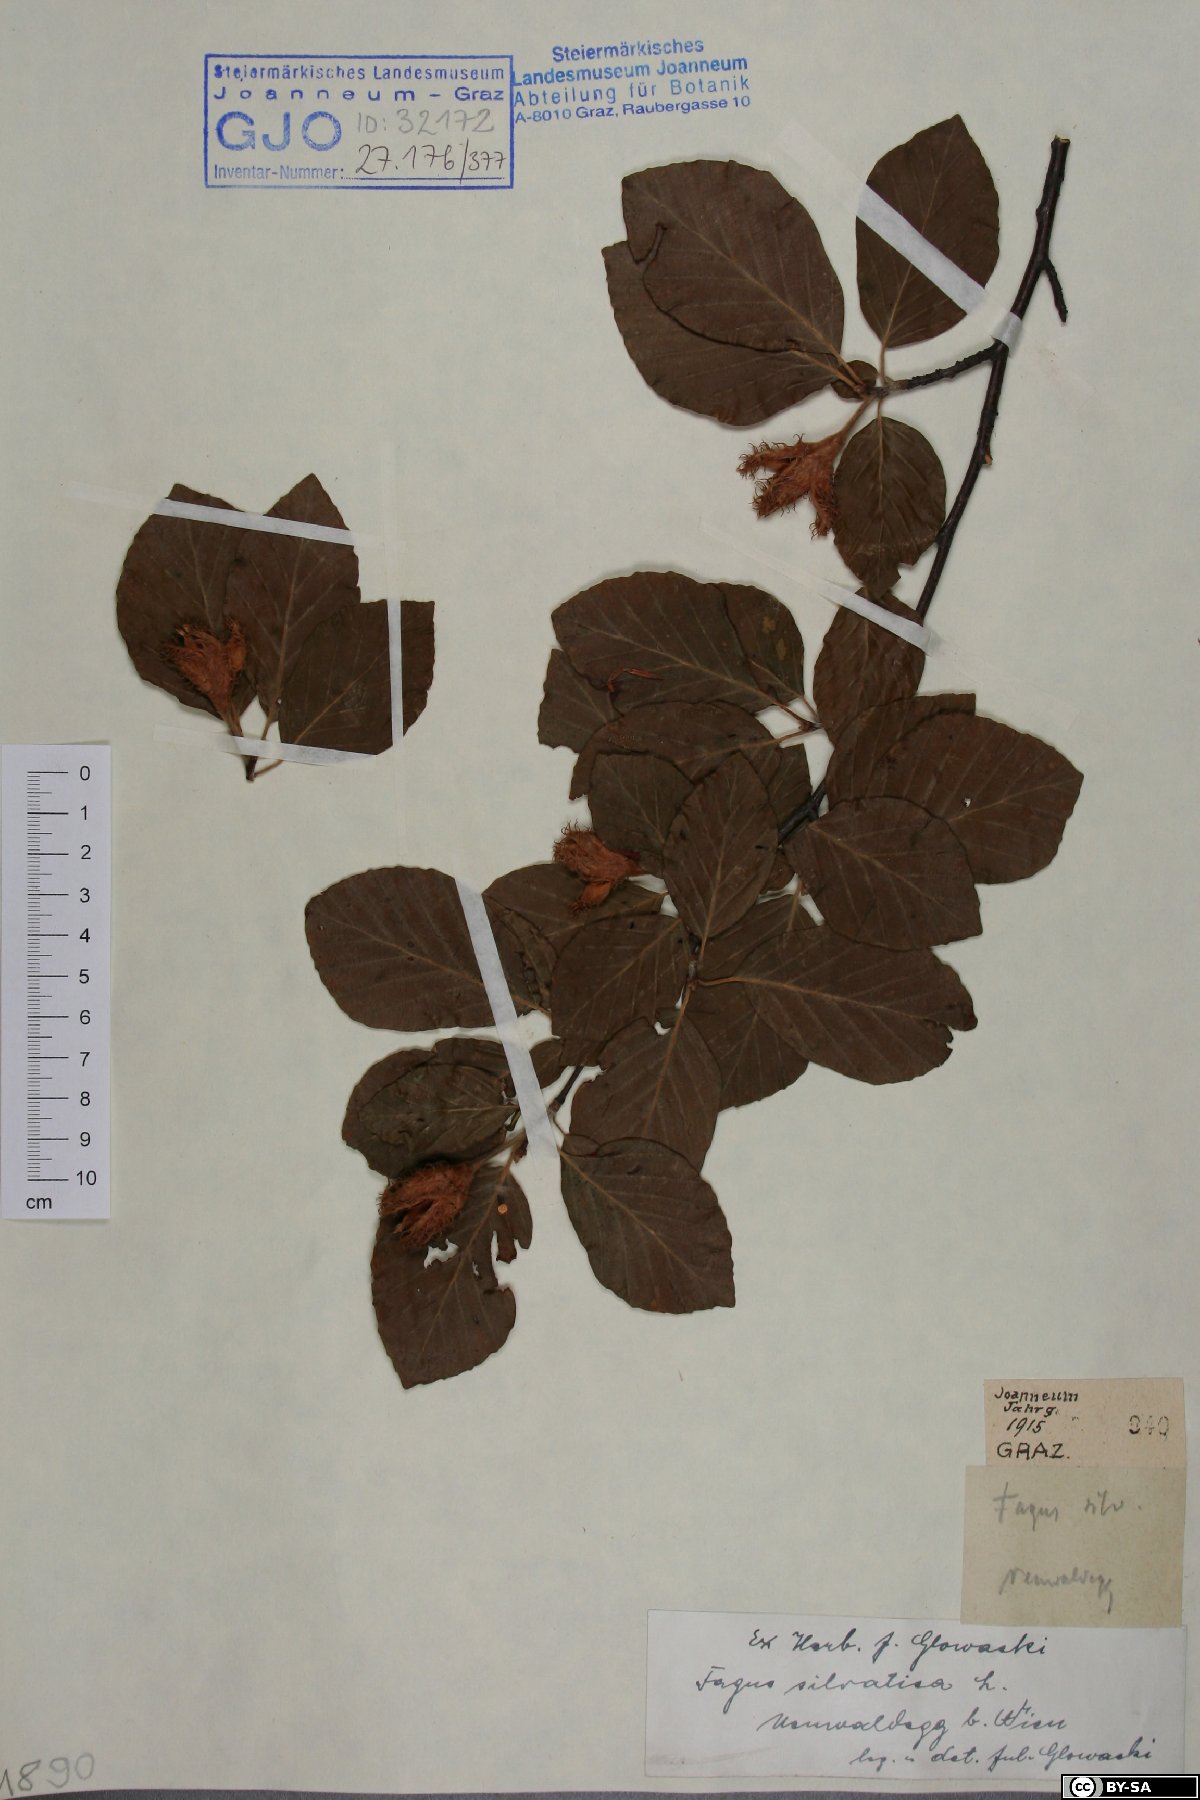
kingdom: Plantae
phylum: Tracheophyta
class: Magnoliopsida
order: Fagales
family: Fagaceae
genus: Fagus
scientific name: Fagus sylvatica
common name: Beech
